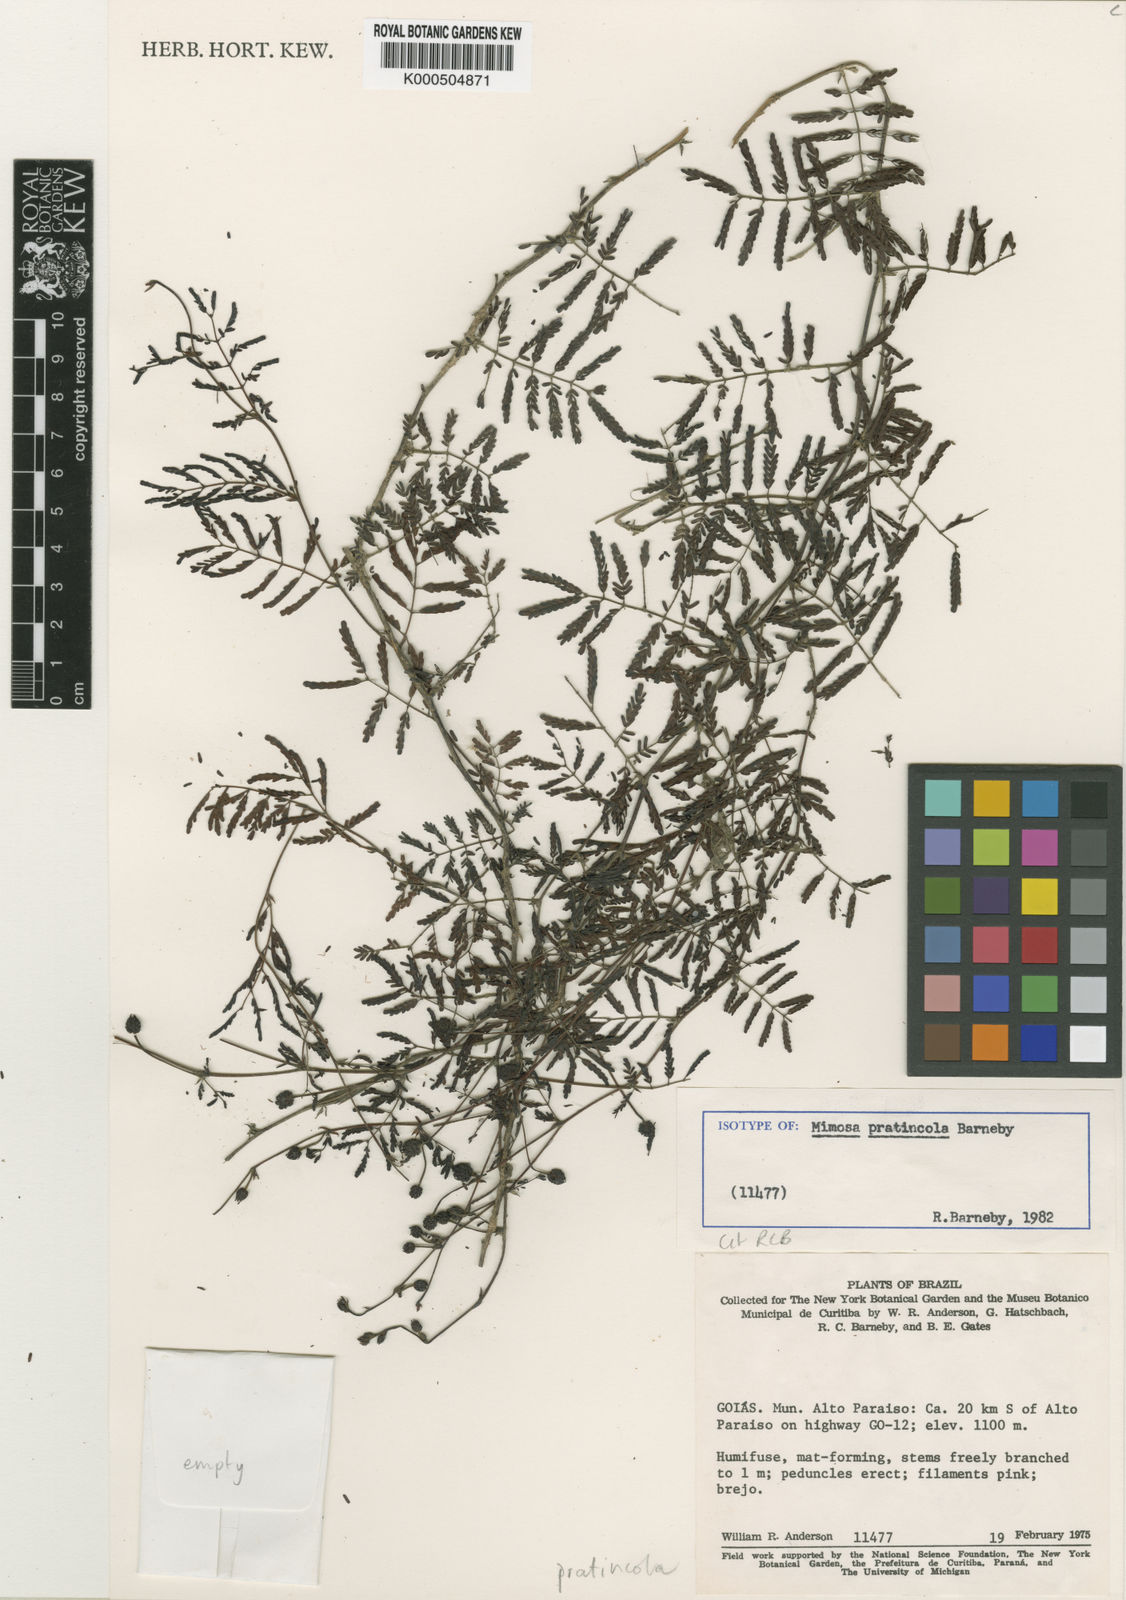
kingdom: Plantae
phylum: Tracheophyta
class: Magnoliopsida
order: Fabales
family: Fabaceae
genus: Mimosa
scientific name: Mimosa pratincola
